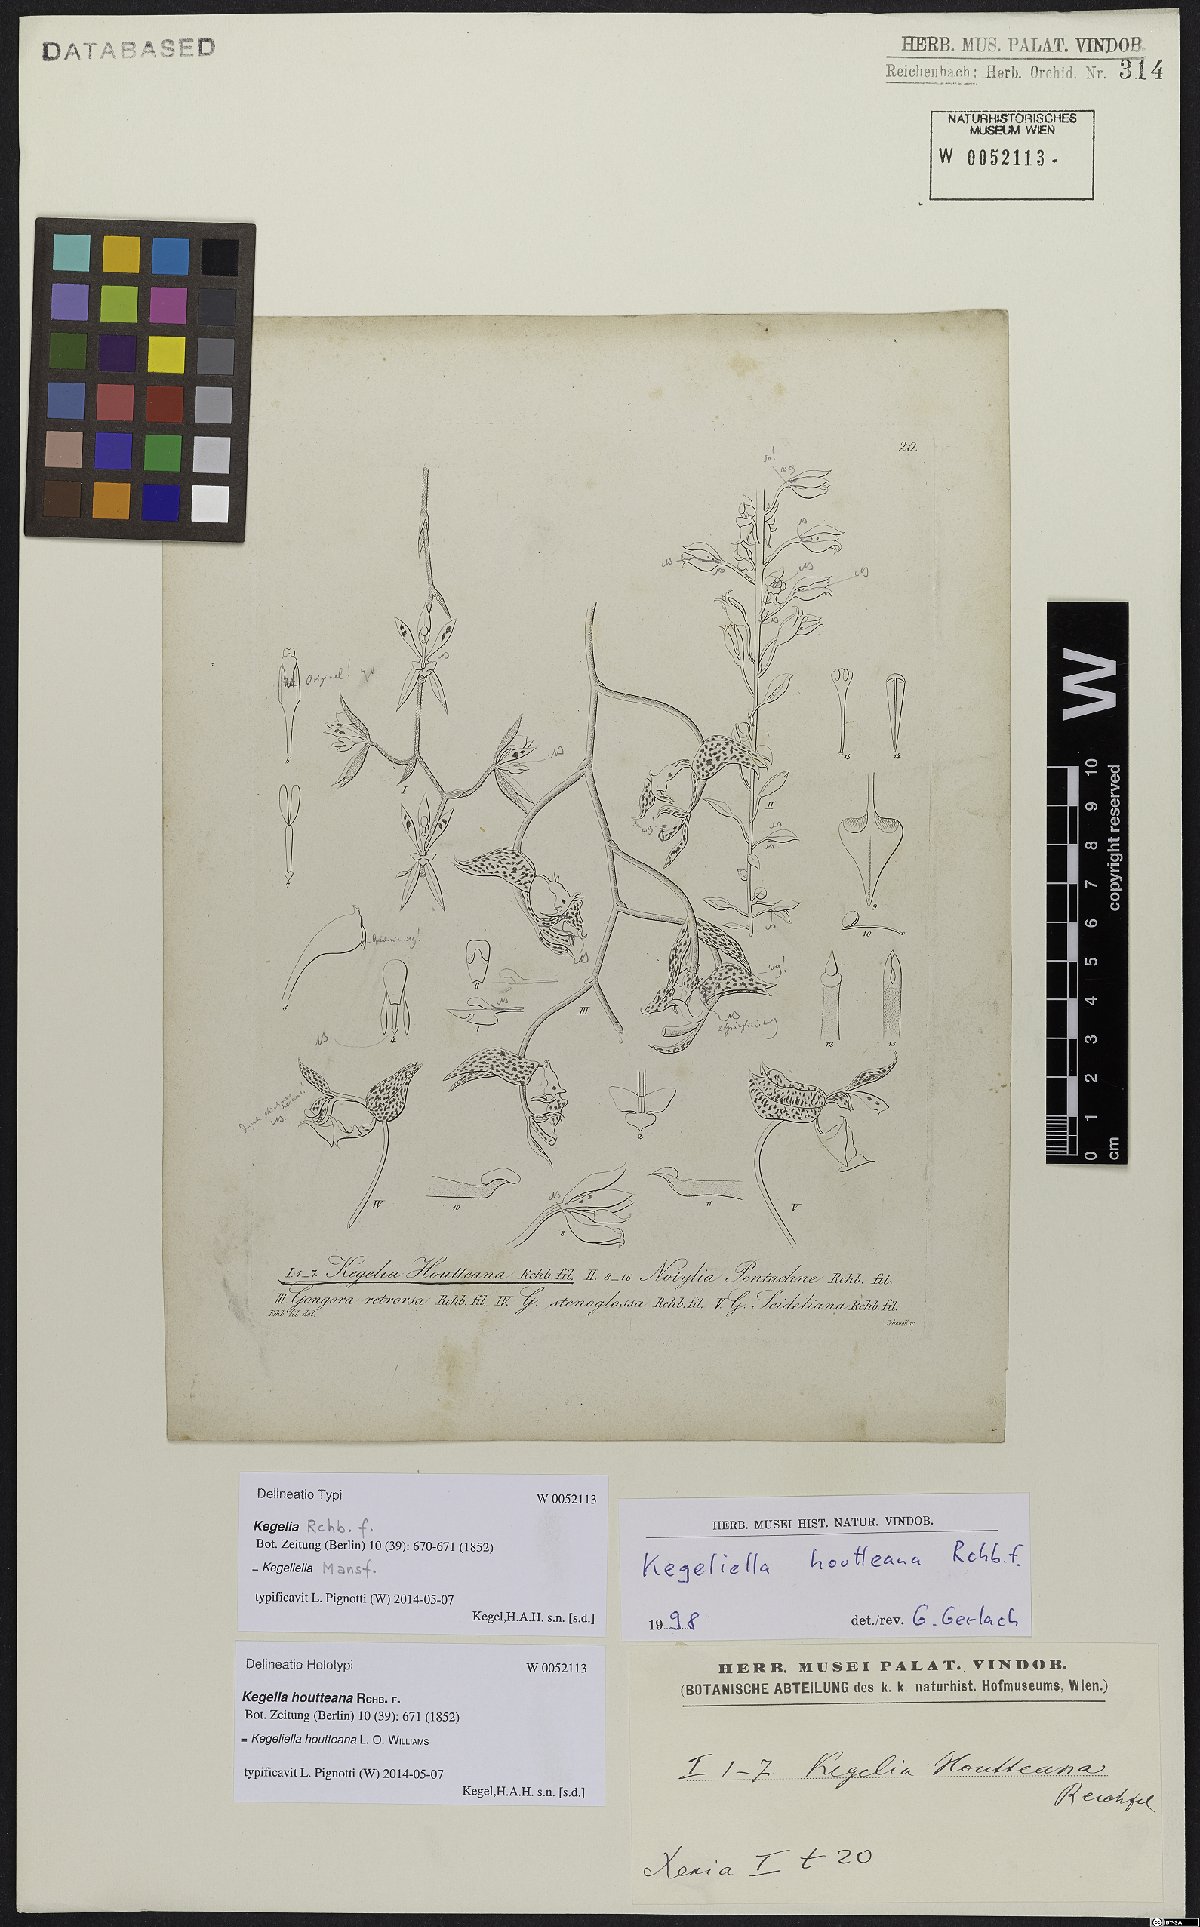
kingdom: Plantae
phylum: Tracheophyta
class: Liliopsida
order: Asparagales
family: Orchidaceae
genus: Kegeliella
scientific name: Kegeliella houtteana
